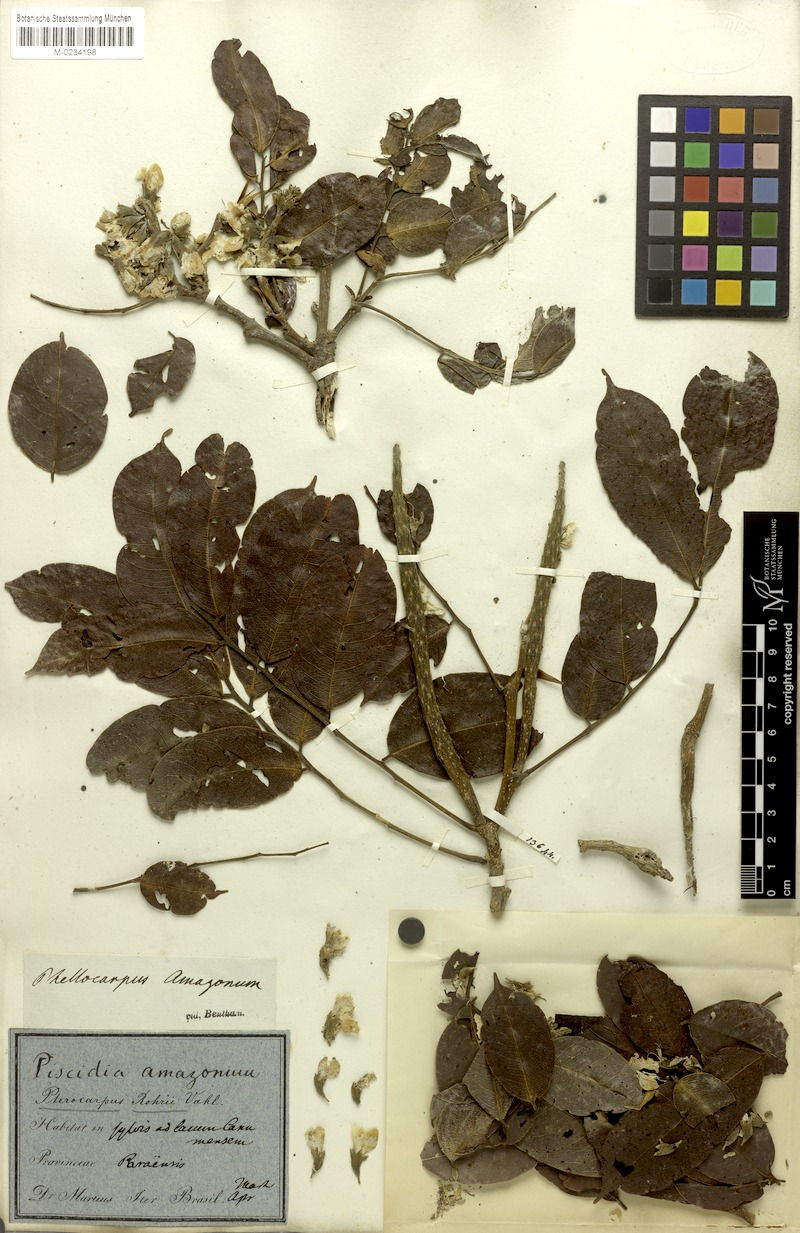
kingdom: Plantae
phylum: Tracheophyta
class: Magnoliopsida
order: Fabales
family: Fabaceae
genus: Pterocarpus
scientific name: Pterocarpus amazonum
